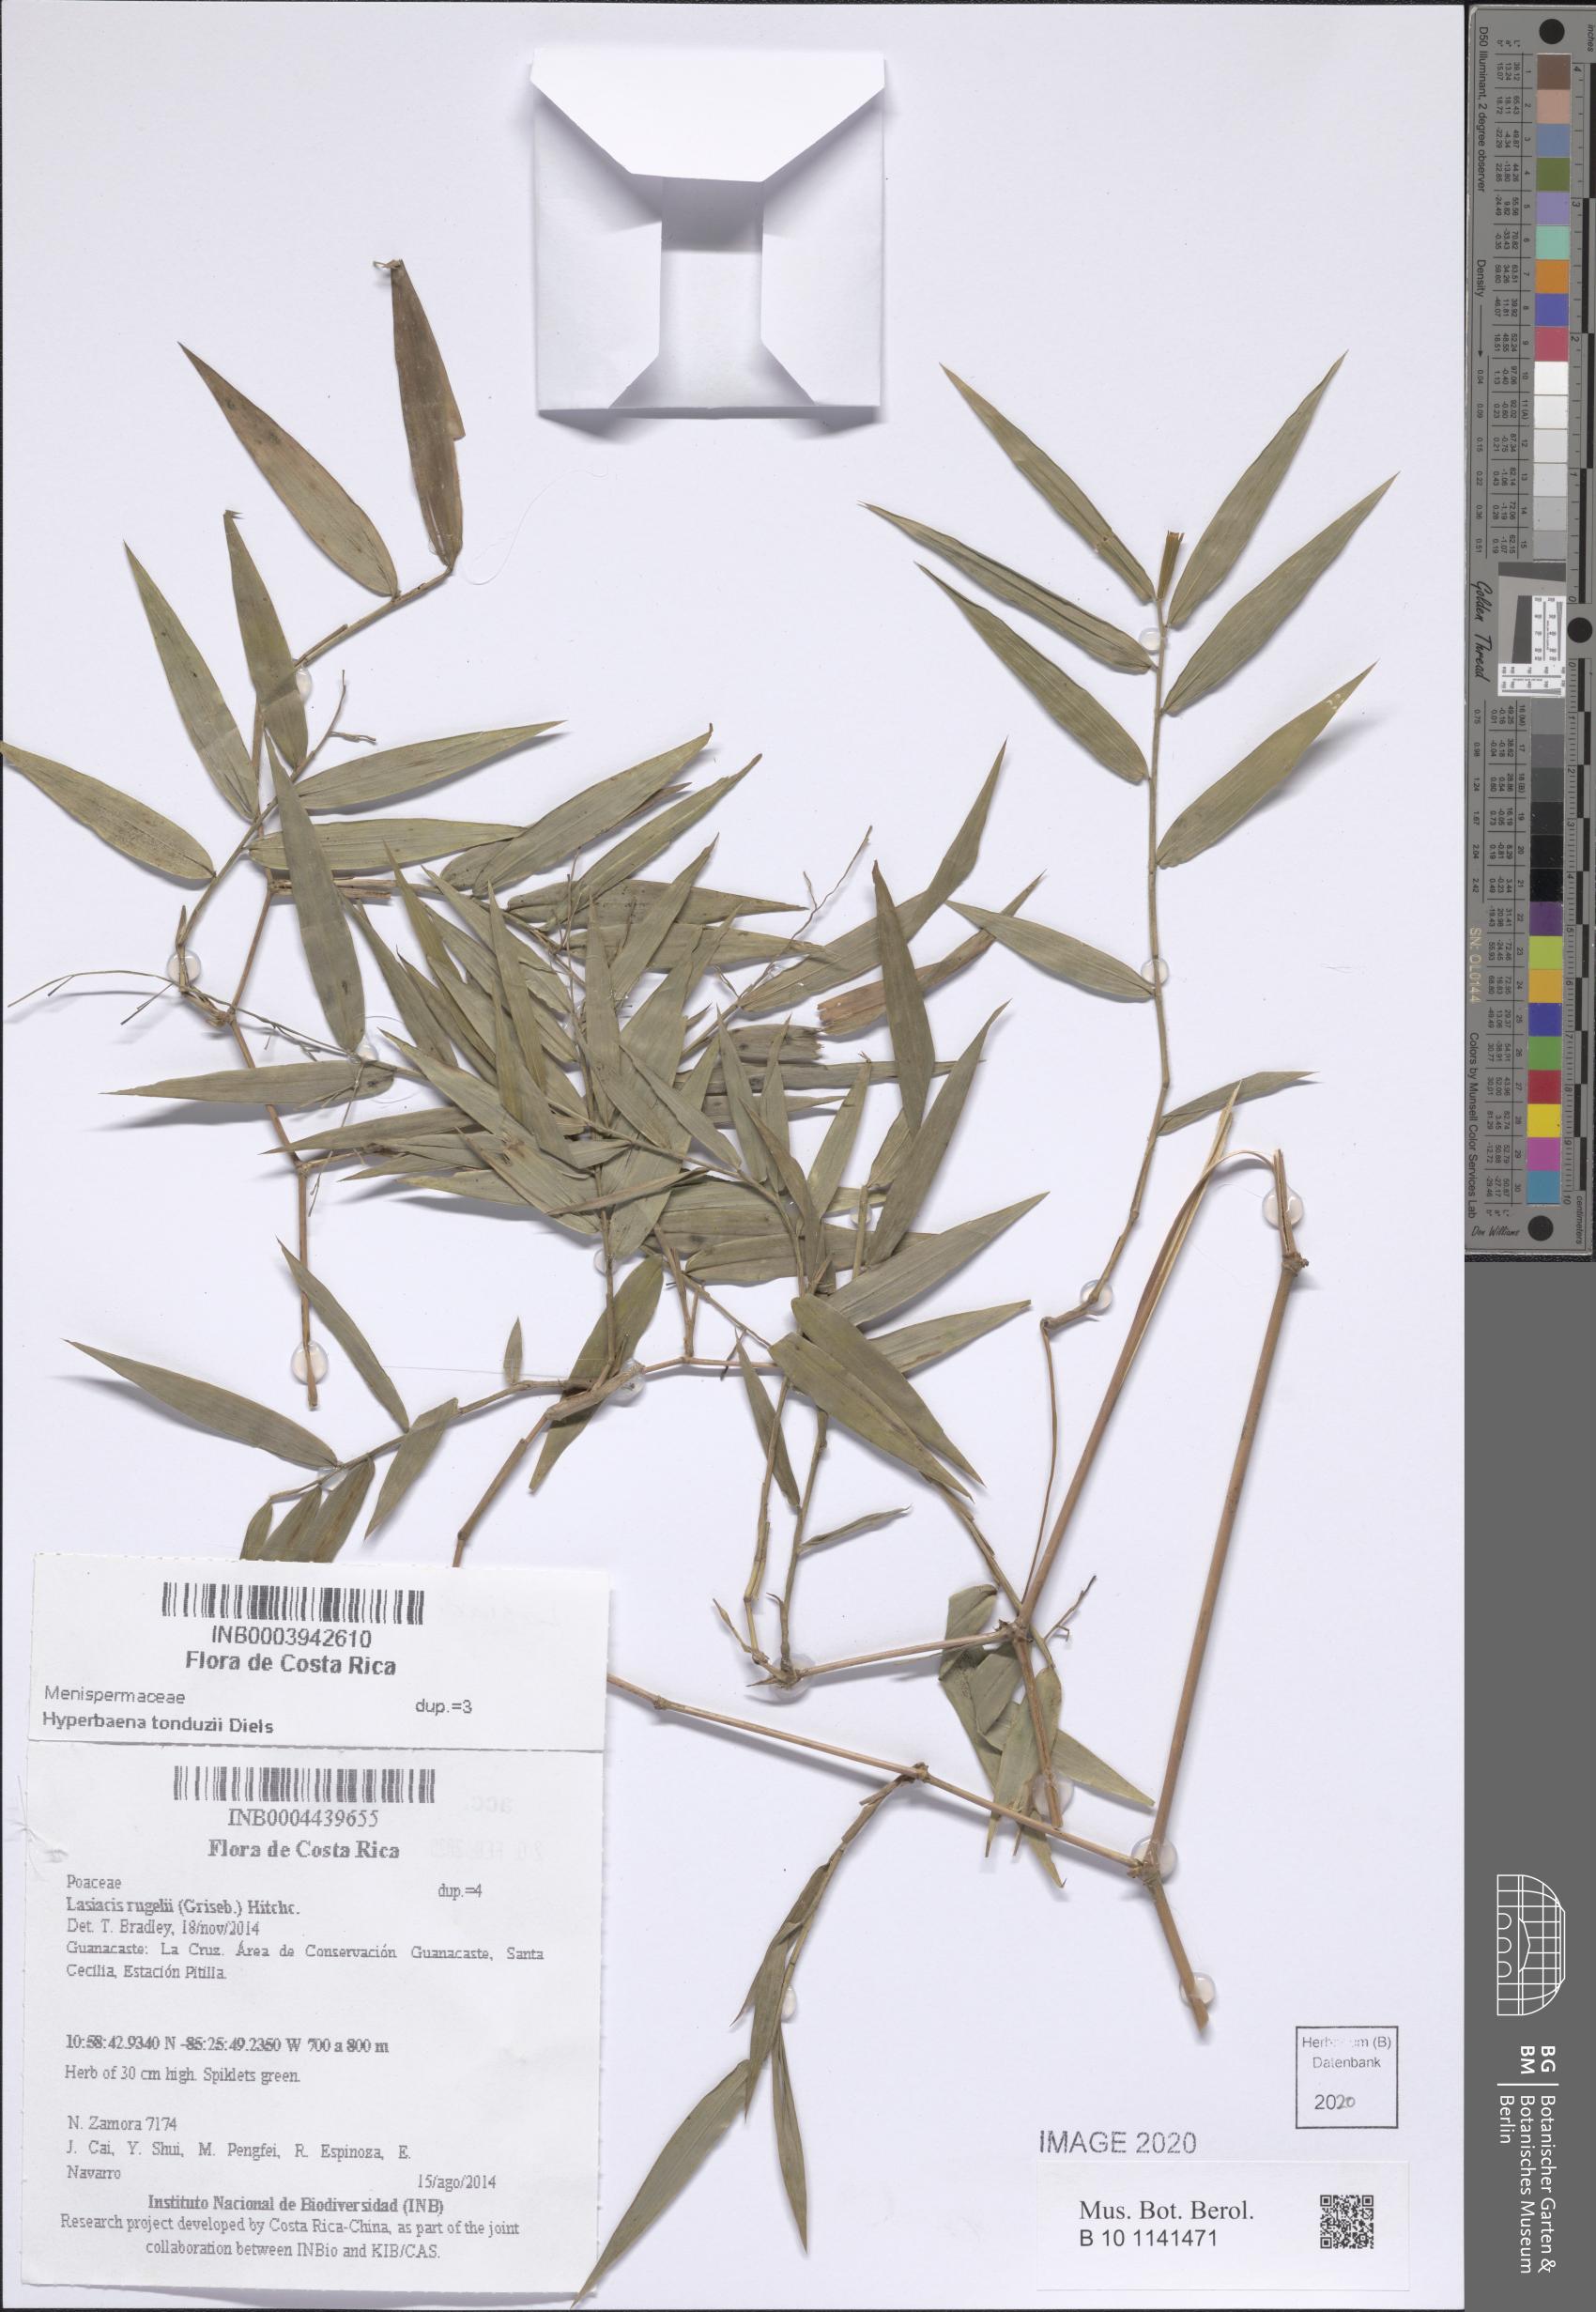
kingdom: Plantae
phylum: Tracheophyta
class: Liliopsida
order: Poales
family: Poaceae
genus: Lasiacis
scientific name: Lasiacis rugelii
